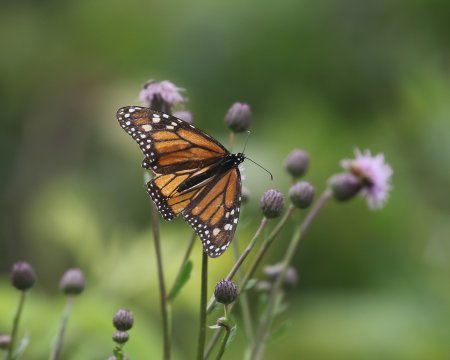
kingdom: Animalia
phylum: Arthropoda
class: Insecta
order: Lepidoptera
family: Nymphalidae
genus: Danaus
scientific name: Danaus plexippus
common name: Monarch
